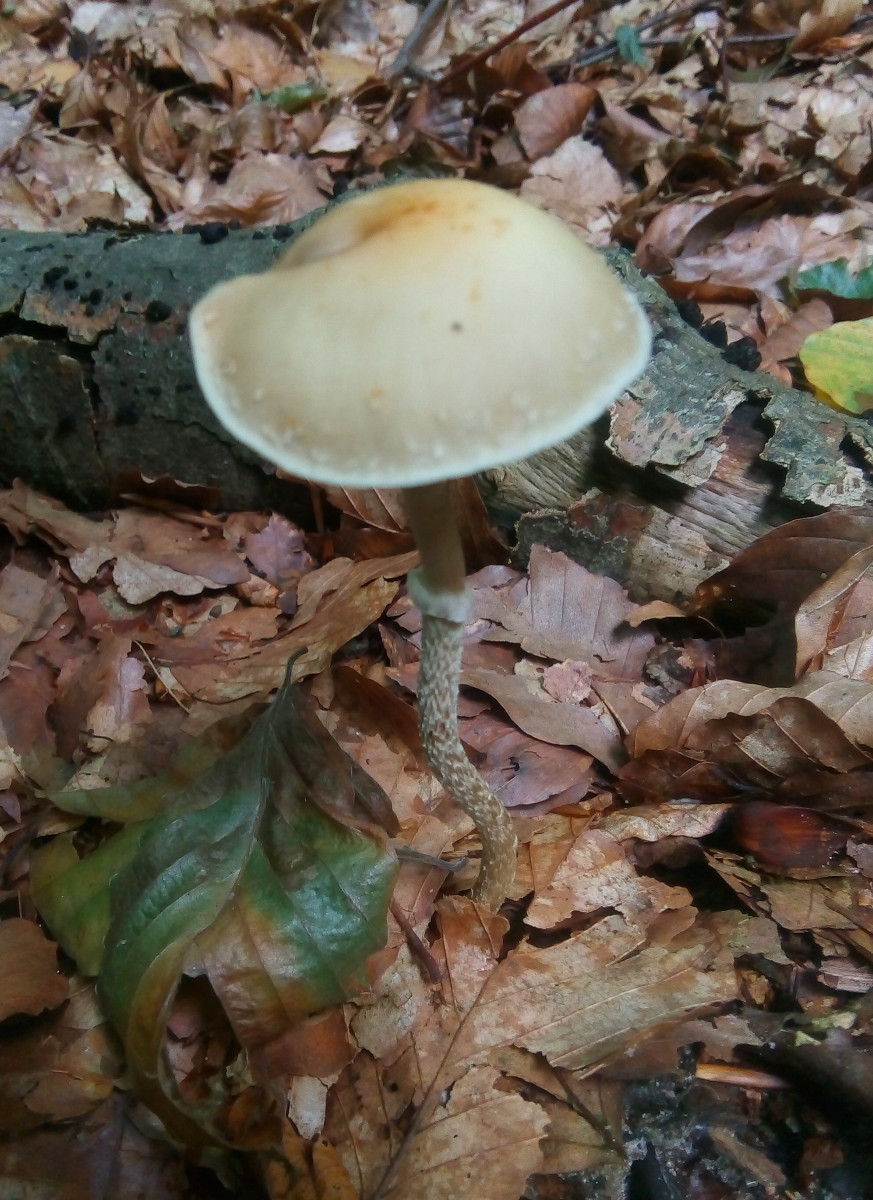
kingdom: Fungi
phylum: Basidiomycota
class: Agaricomycetes
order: Agaricales
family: Strophariaceae
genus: Leratiomyces
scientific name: Leratiomyces squamosus
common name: skællet bredblad
